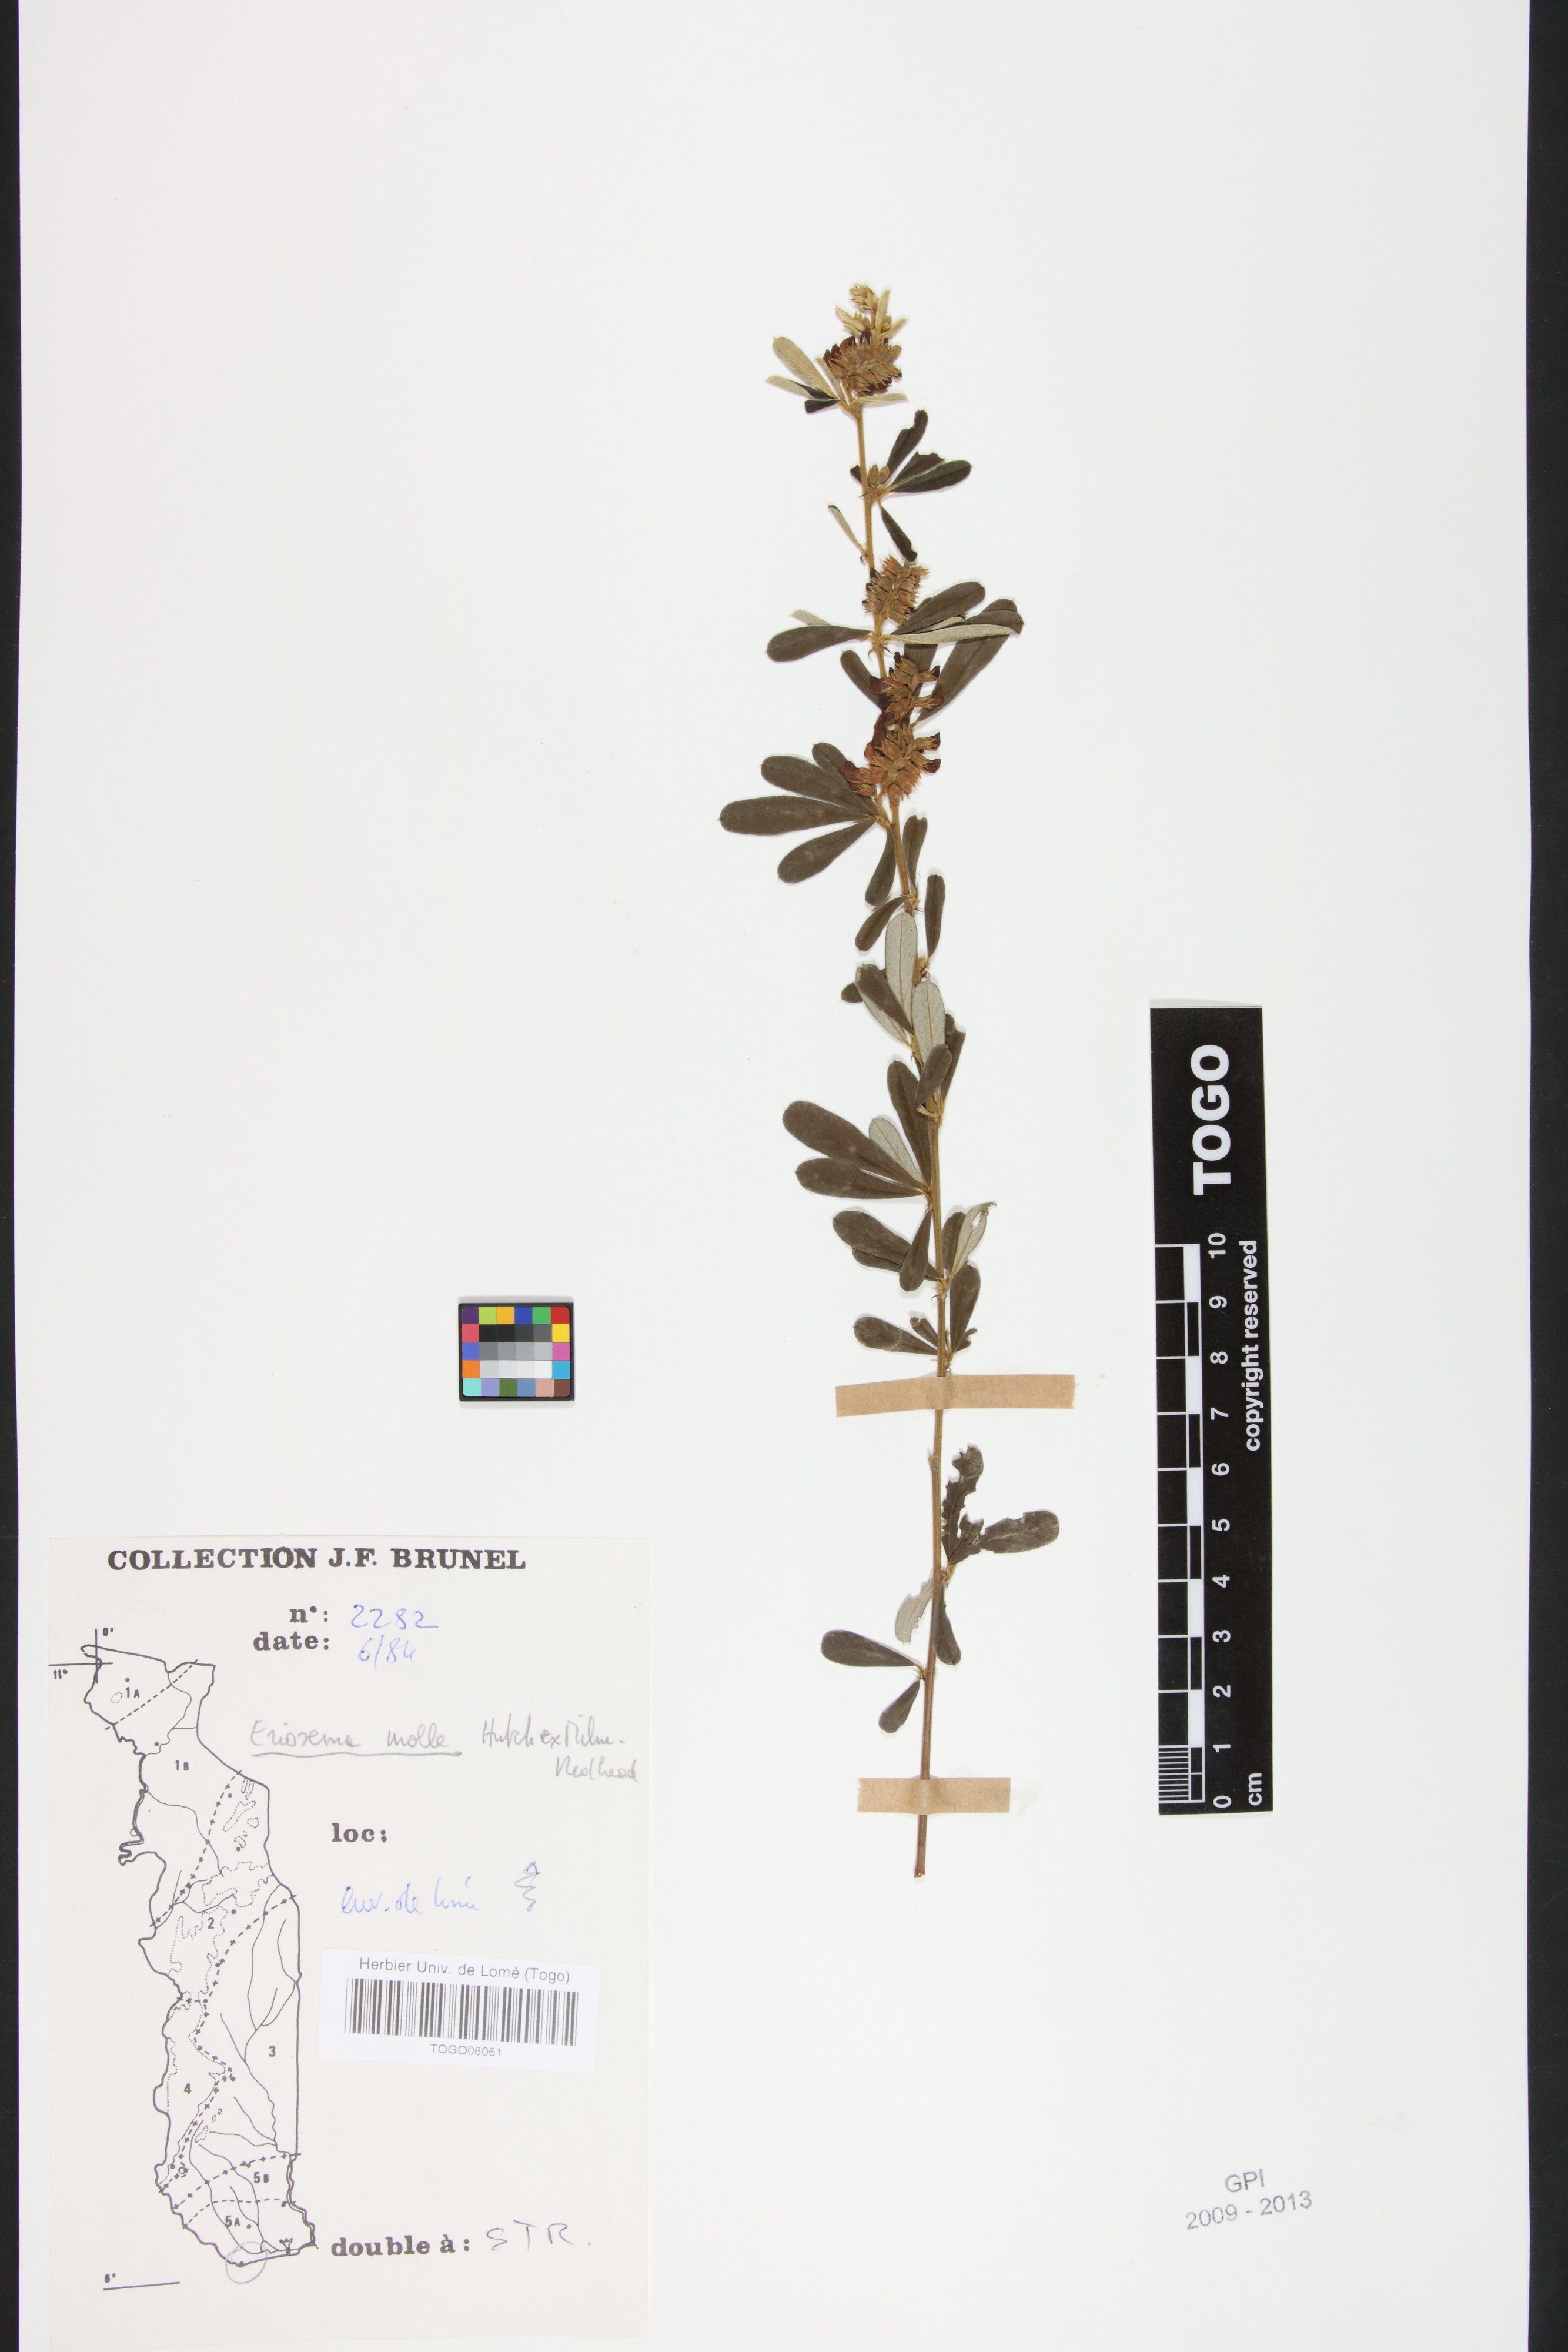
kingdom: Plantae
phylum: Tracheophyta
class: Magnoliopsida
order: Fabales
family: Fabaceae
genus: Eriosema
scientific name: Eriosema molle
